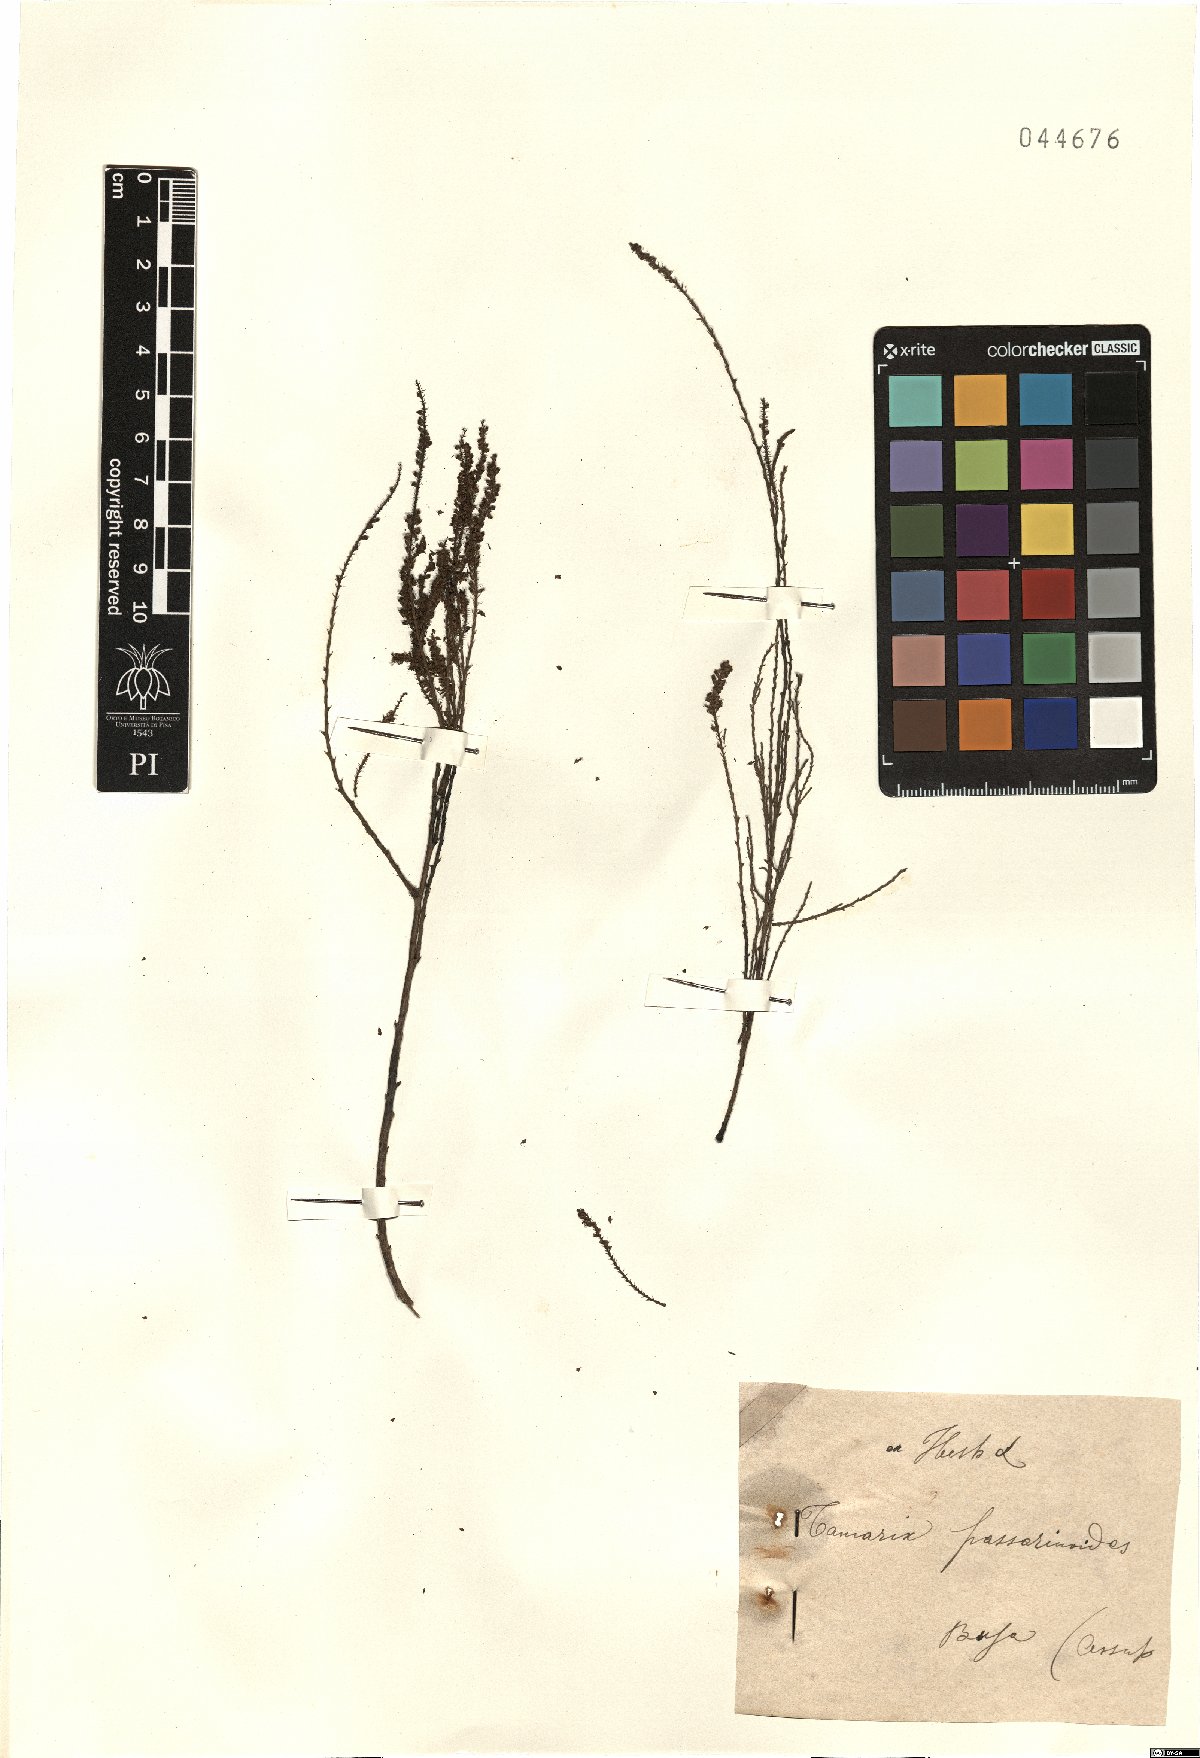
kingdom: Plantae
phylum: Tracheophyta
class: Magnoliopsida
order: Caryophyllales
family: Tamaricaceae
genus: Tamarix
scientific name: Tamarix passerinoides
